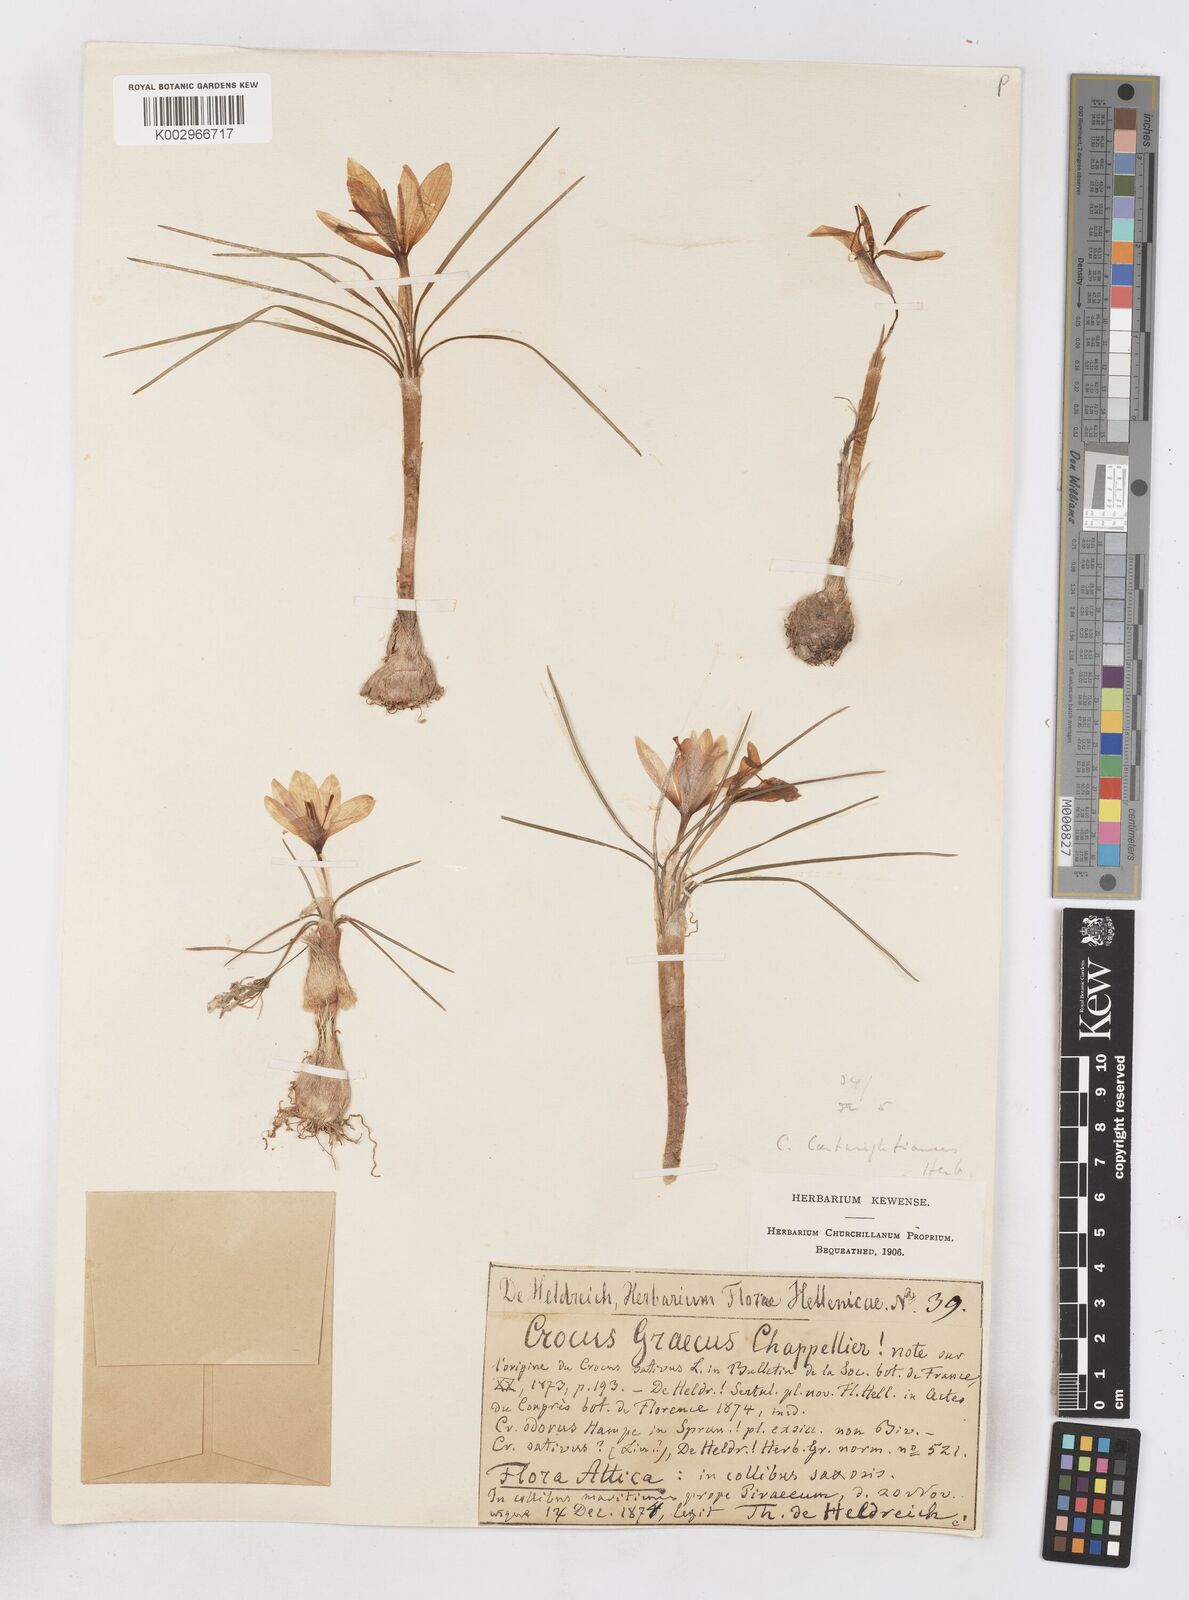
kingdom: Plantae
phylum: Tracheophyta
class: Liliopsida
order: Asparagales
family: Iridaceae
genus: Crocus
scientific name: Crocus cartwrightianus
